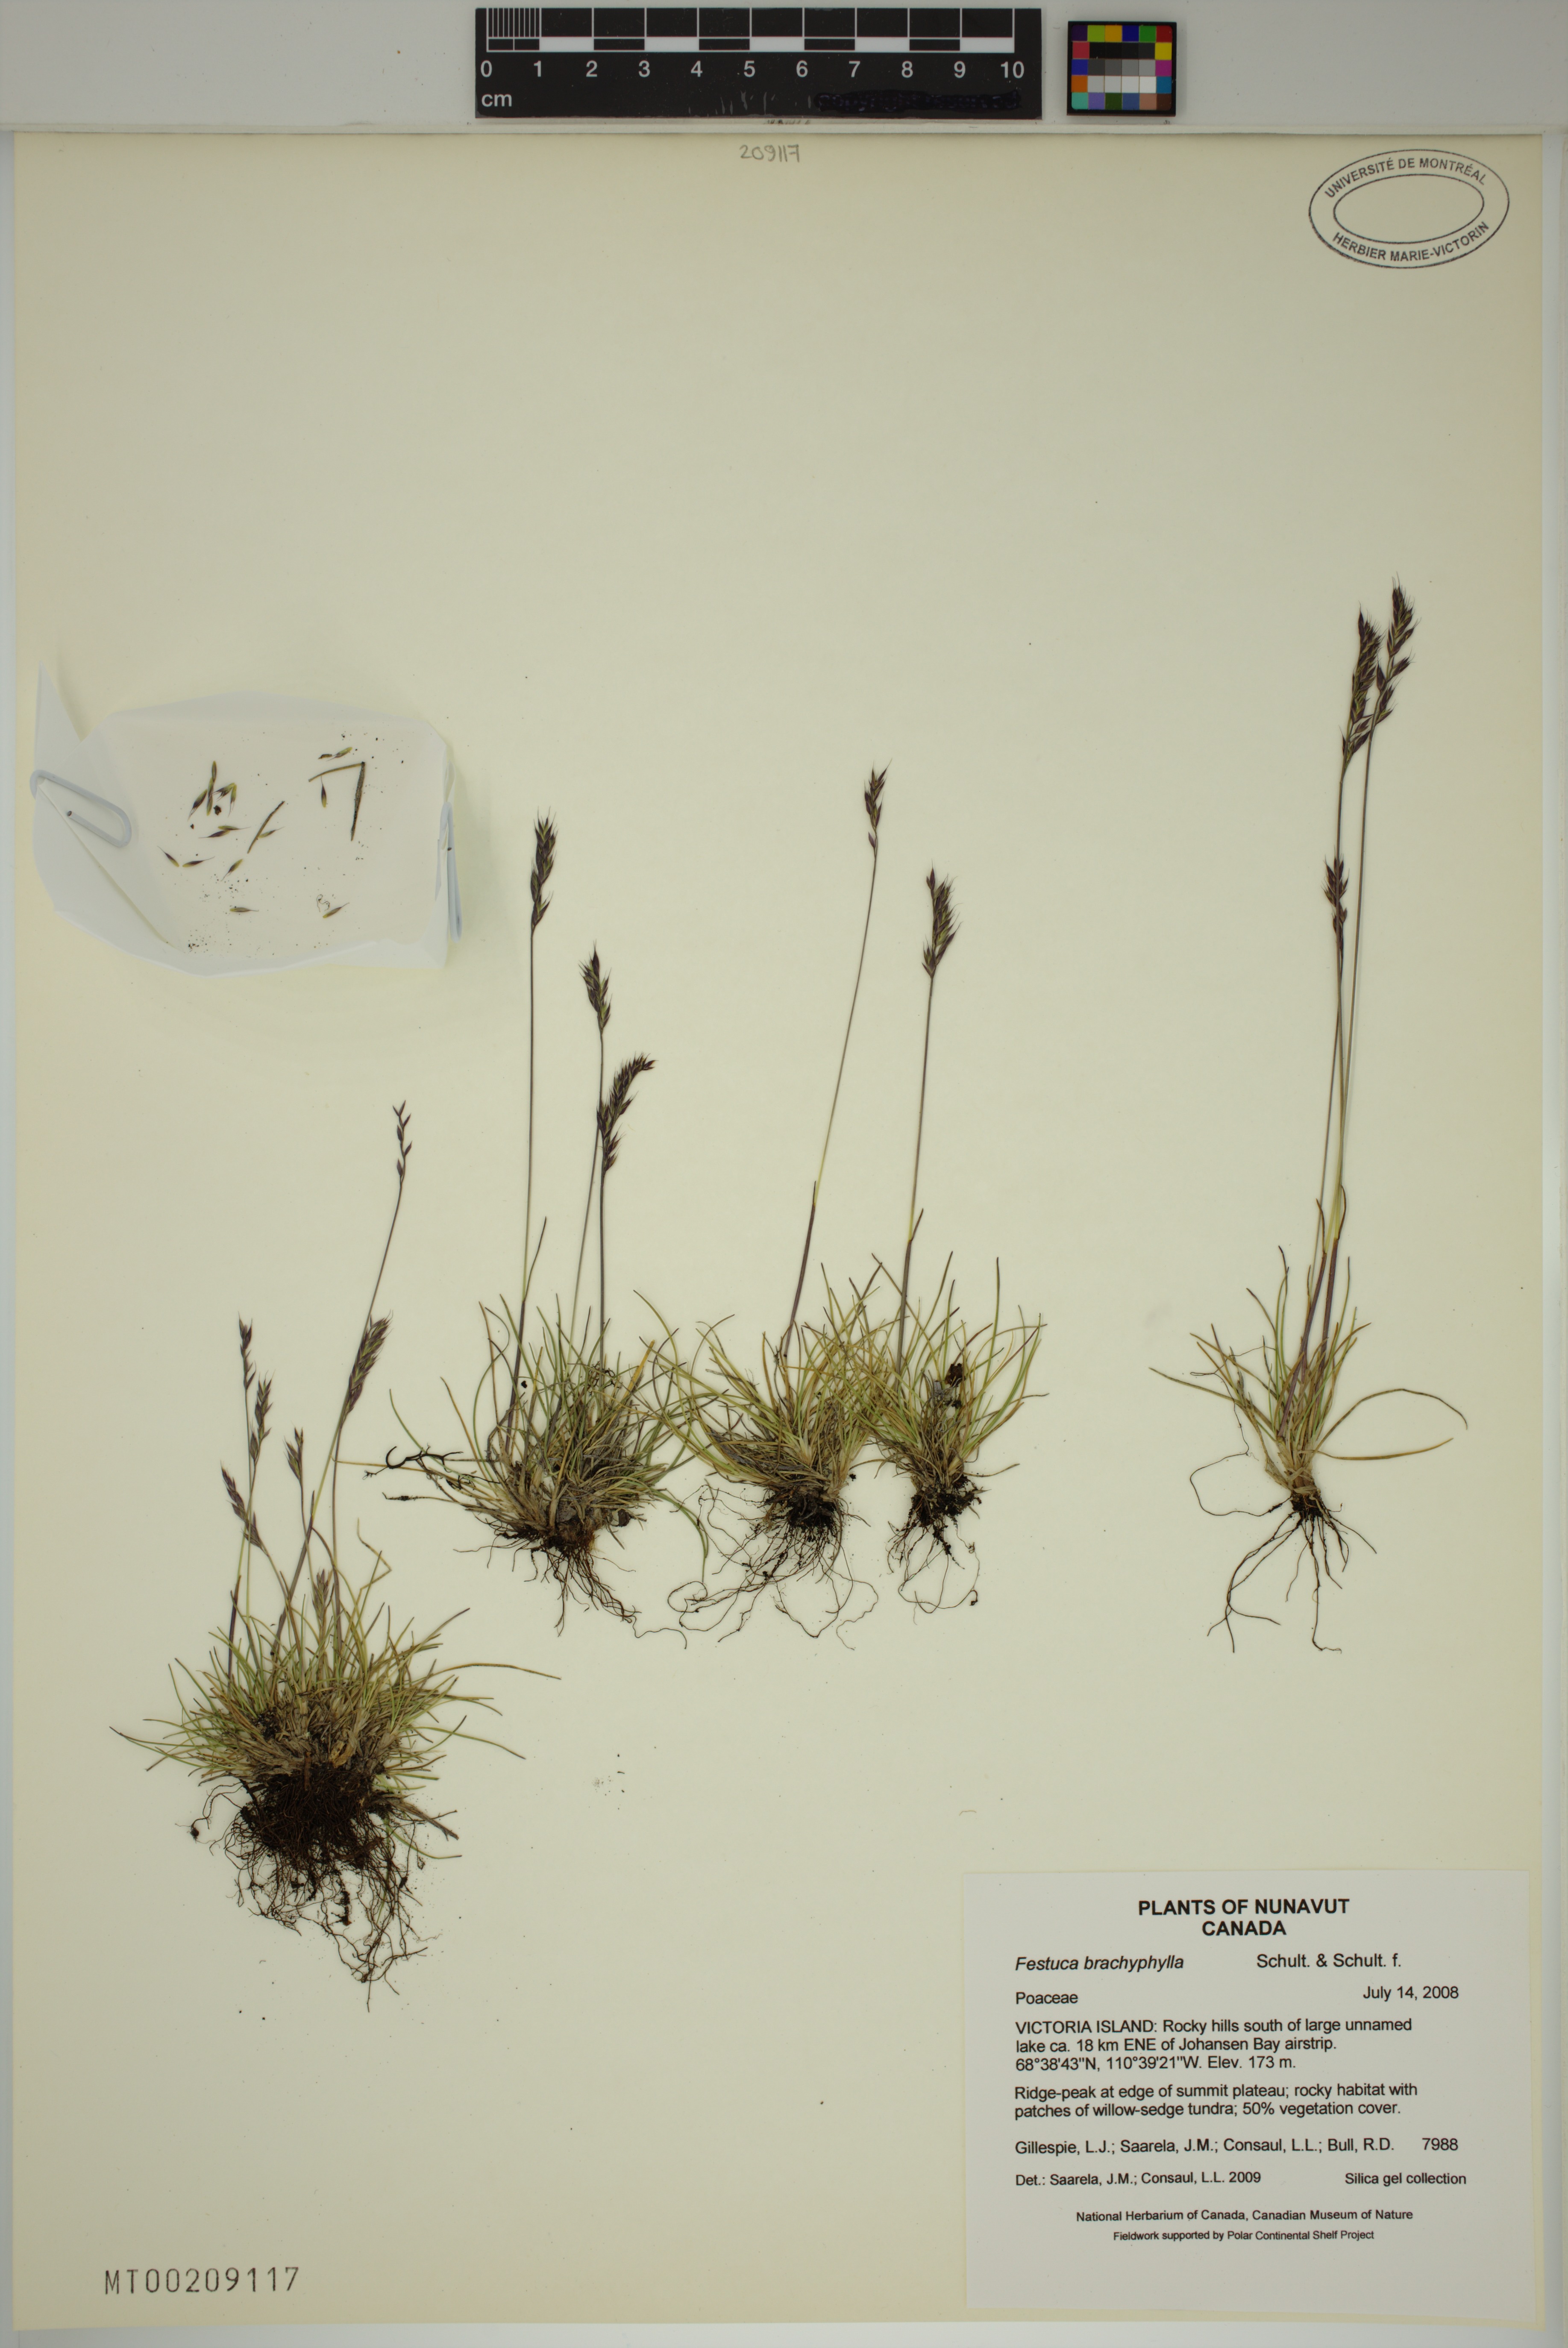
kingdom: Plantae
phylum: Tracheophyta
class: Liliopsida
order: Poales
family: Poaceae
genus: Festuca
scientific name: Festuca brachyphylla
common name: Alpine fescue
